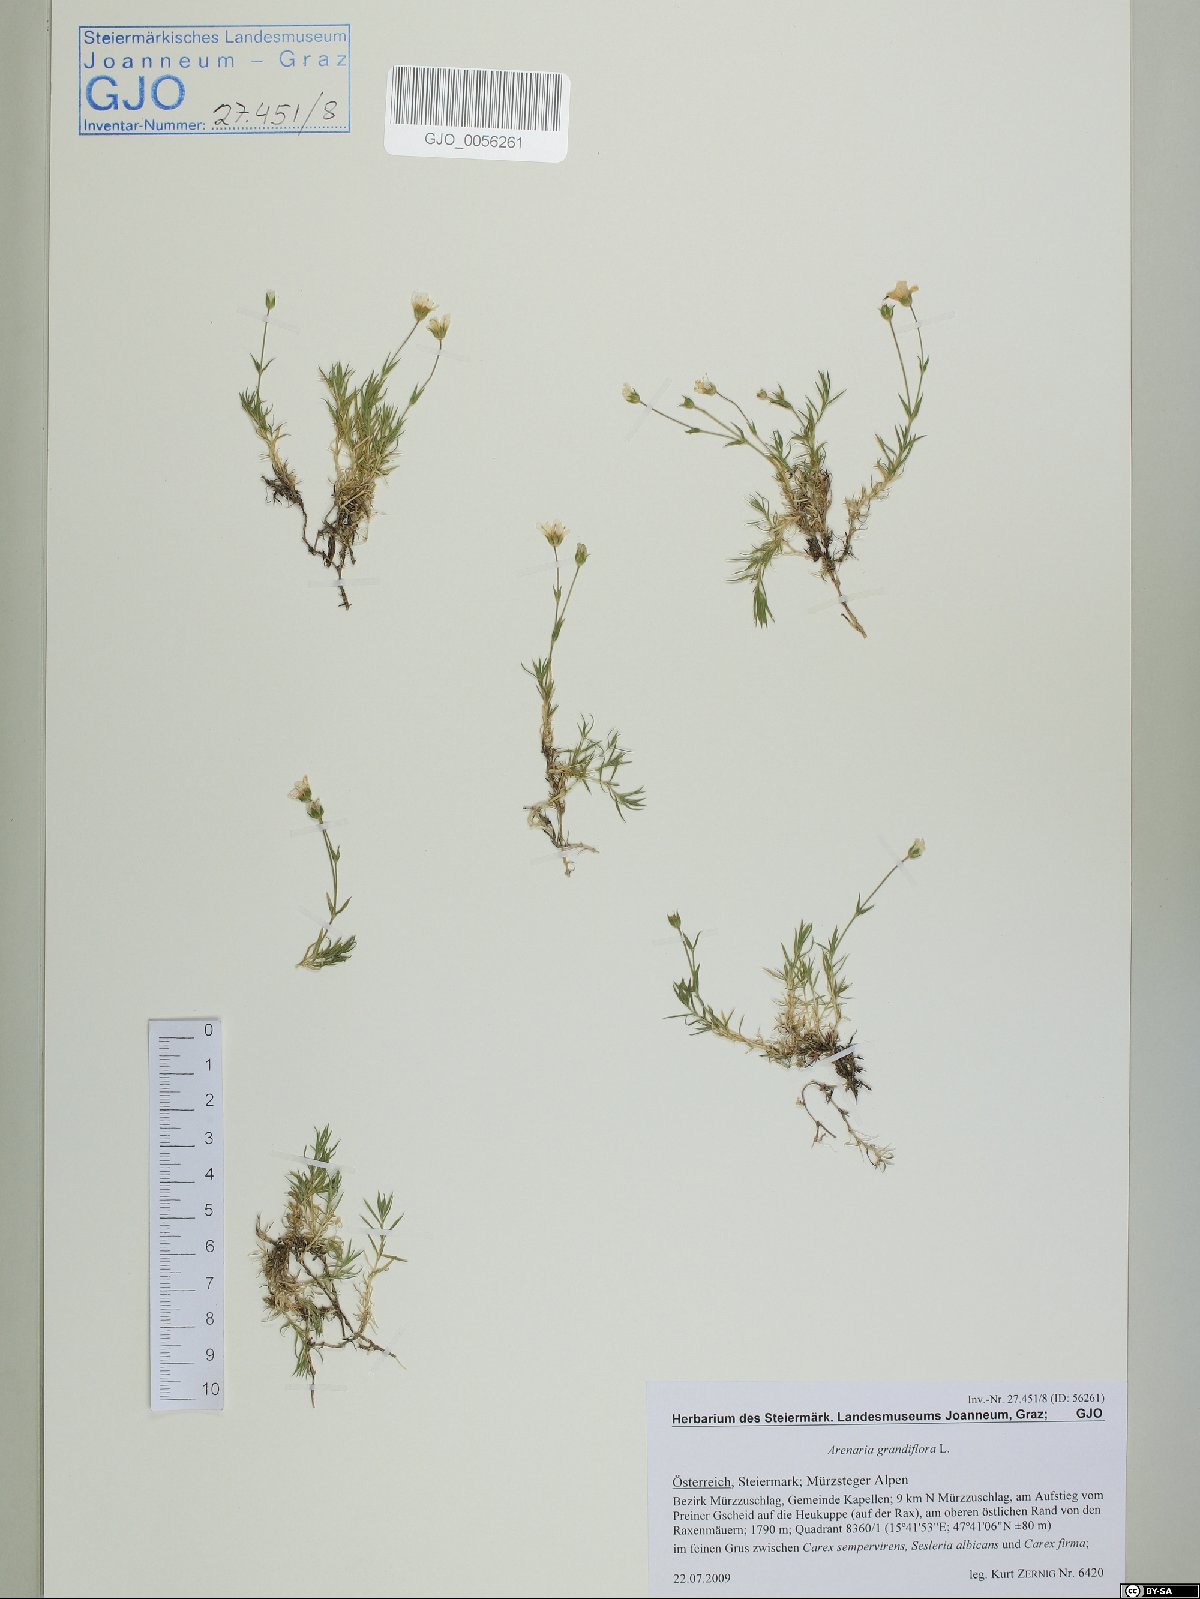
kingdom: Plantae
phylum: Tracheophyta
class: Magnoliopsida
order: Caryophyllales
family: Caryophyllaceae
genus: Arenaria
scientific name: Arenaria grandiflora
